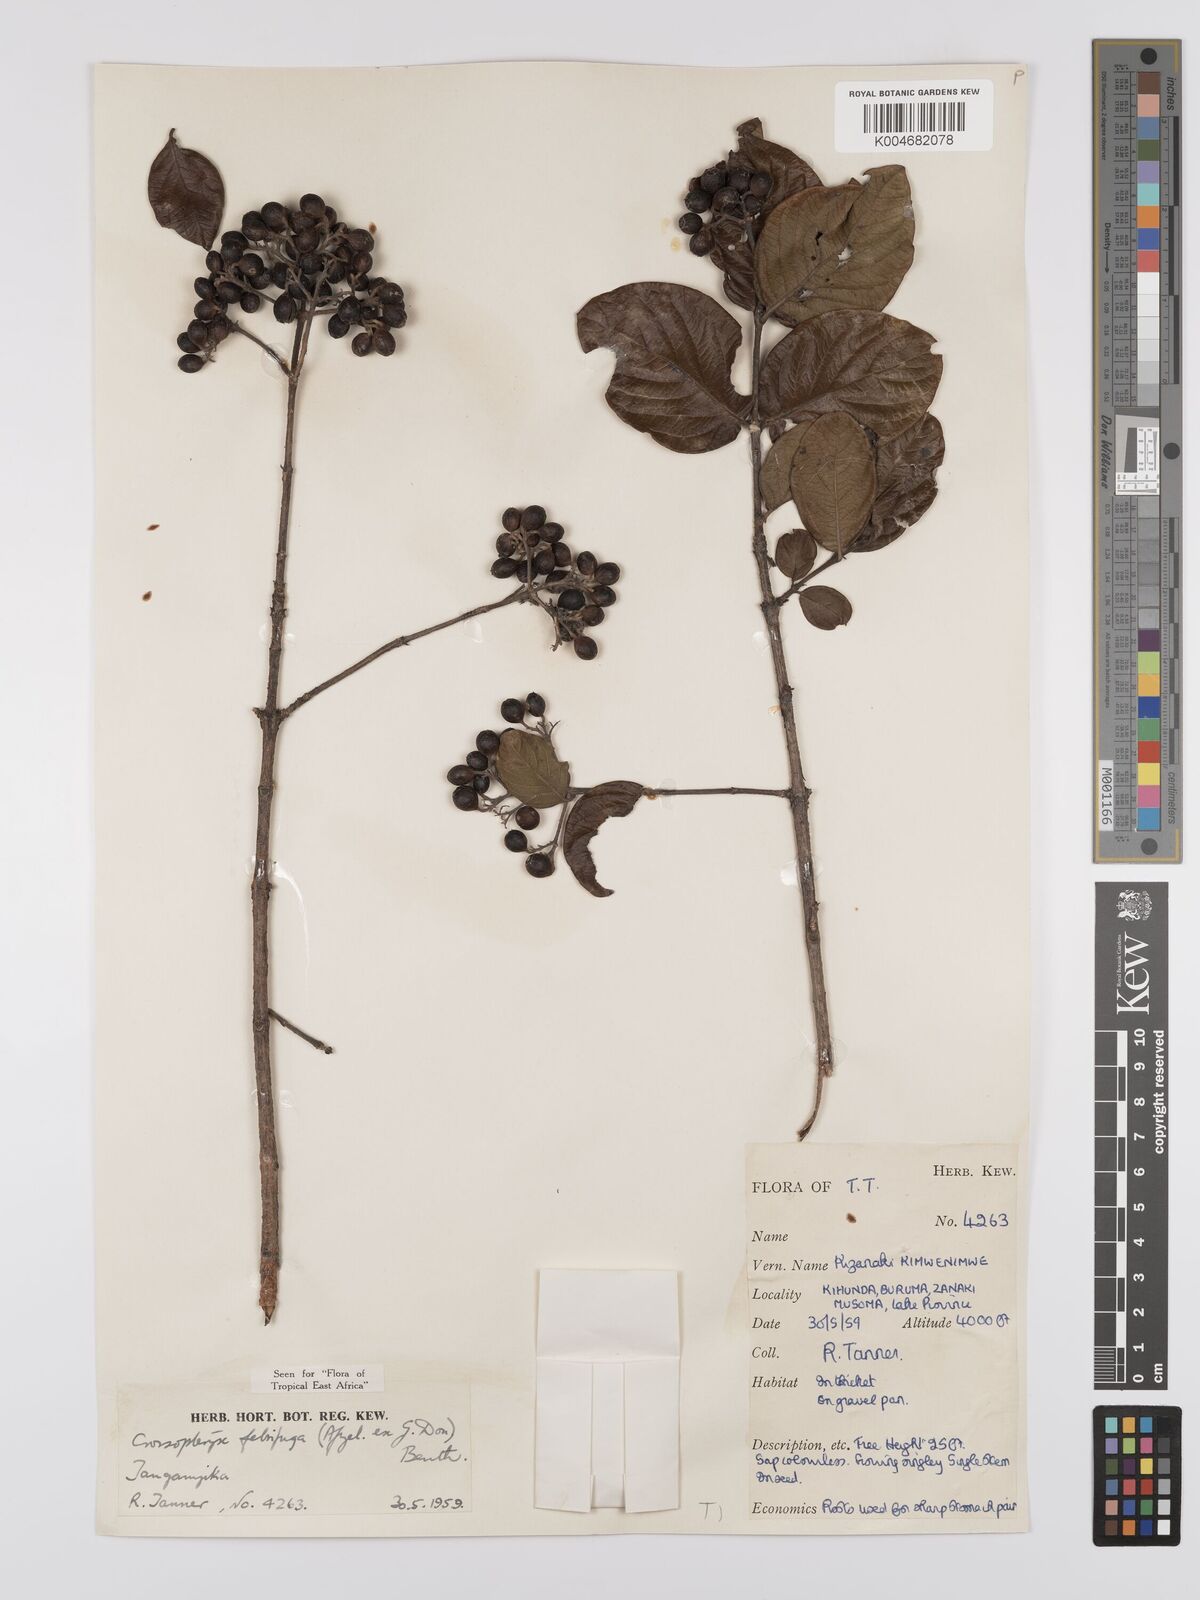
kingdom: Plantae
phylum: Tracheophyta
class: Magnoliopsida
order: Gentianales
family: Rubiaceae
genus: Crossopteryx
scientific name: Crossopteryx febrifuga
